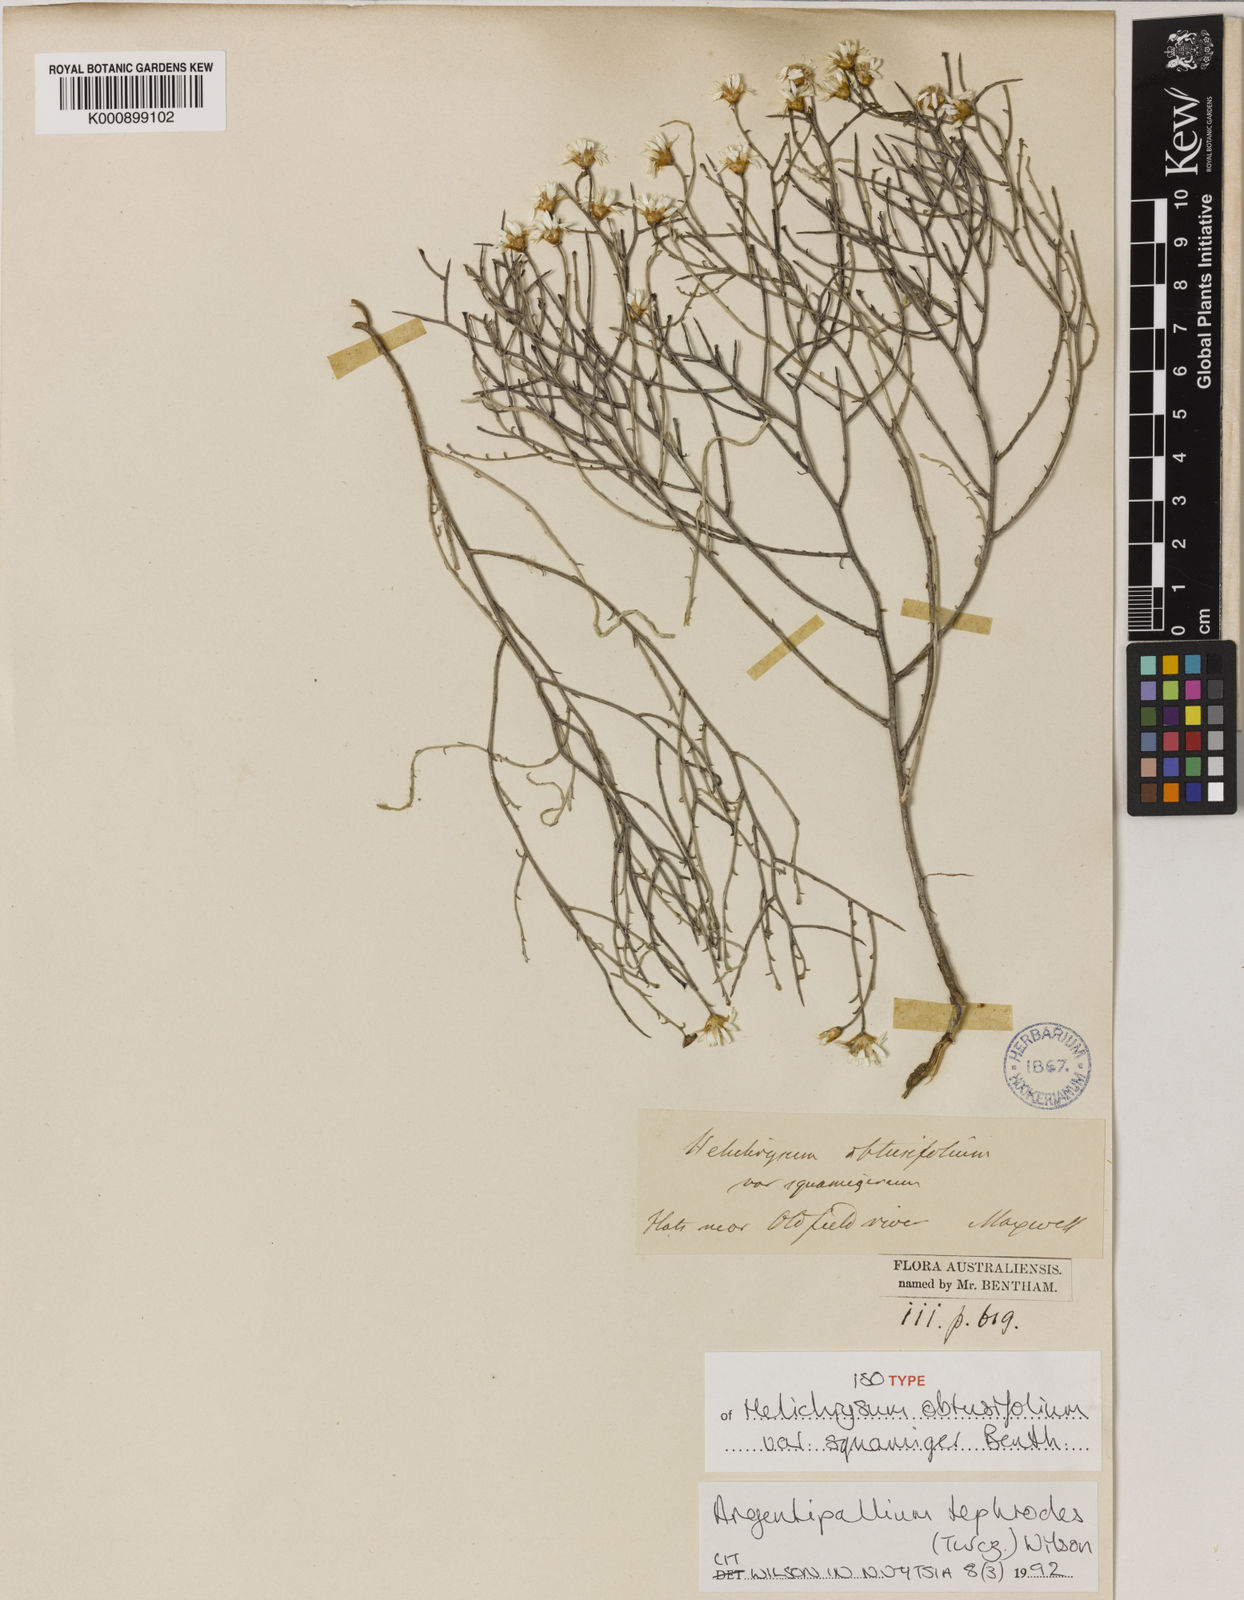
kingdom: Plantae
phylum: Tracheophyta
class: Magnoliopsida
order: Asterales
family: Asteraceae
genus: Argentipallium
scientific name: Argentipallium tephrodes
